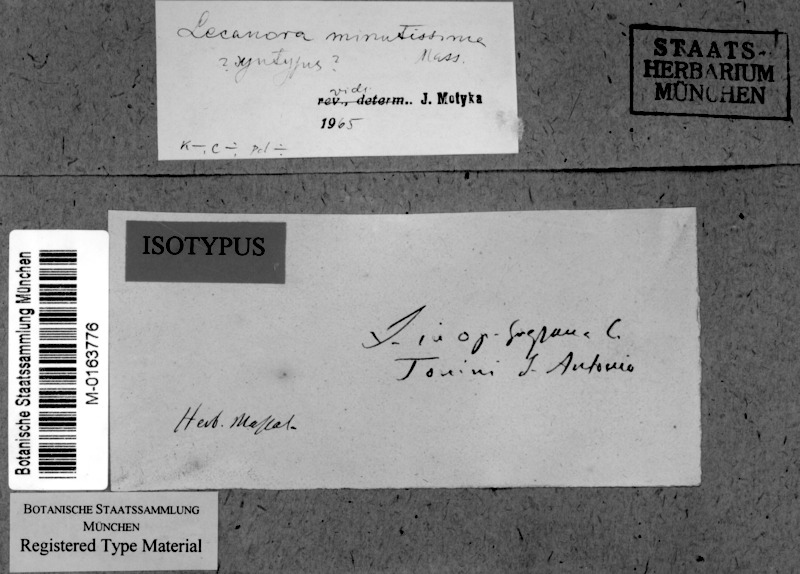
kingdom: Fungi
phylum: Ascomycota
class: Lecanoromycetes
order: Lecanorales
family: Lecanoraceae
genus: Lecanora
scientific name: Lecanora minutissima
